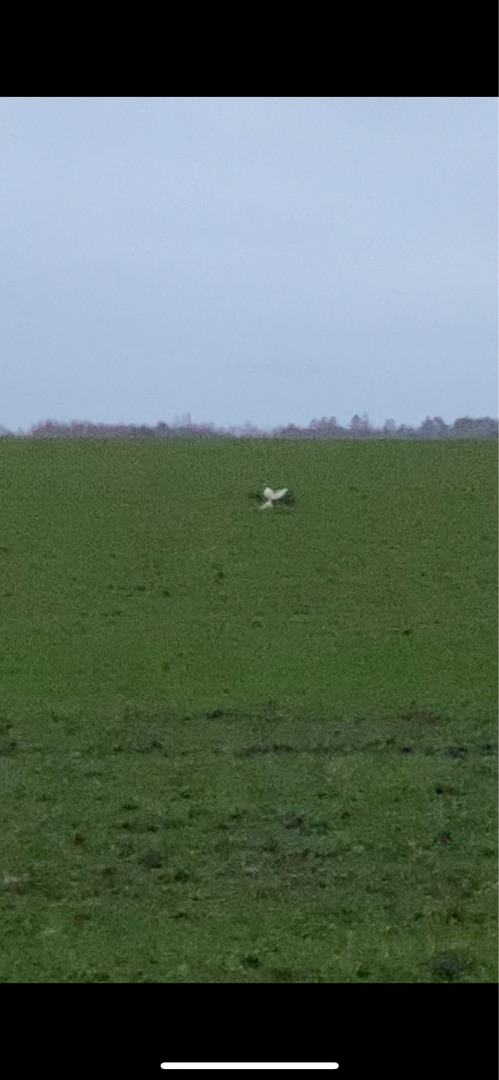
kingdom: Animalia
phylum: Chordata
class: Aves
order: Accipitriformes
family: Accipitridae
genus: Buteo
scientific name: Buteo buteo
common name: Musvåge
